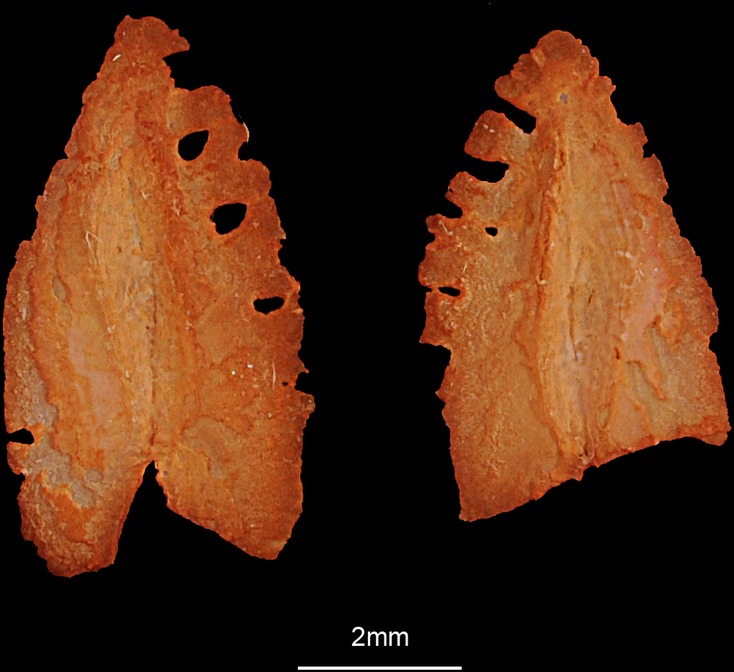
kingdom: Animalia
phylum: Chordata
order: Perciformes
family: Stromateidae
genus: Pampus
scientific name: Pampus argenteus
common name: Silver pomfret
